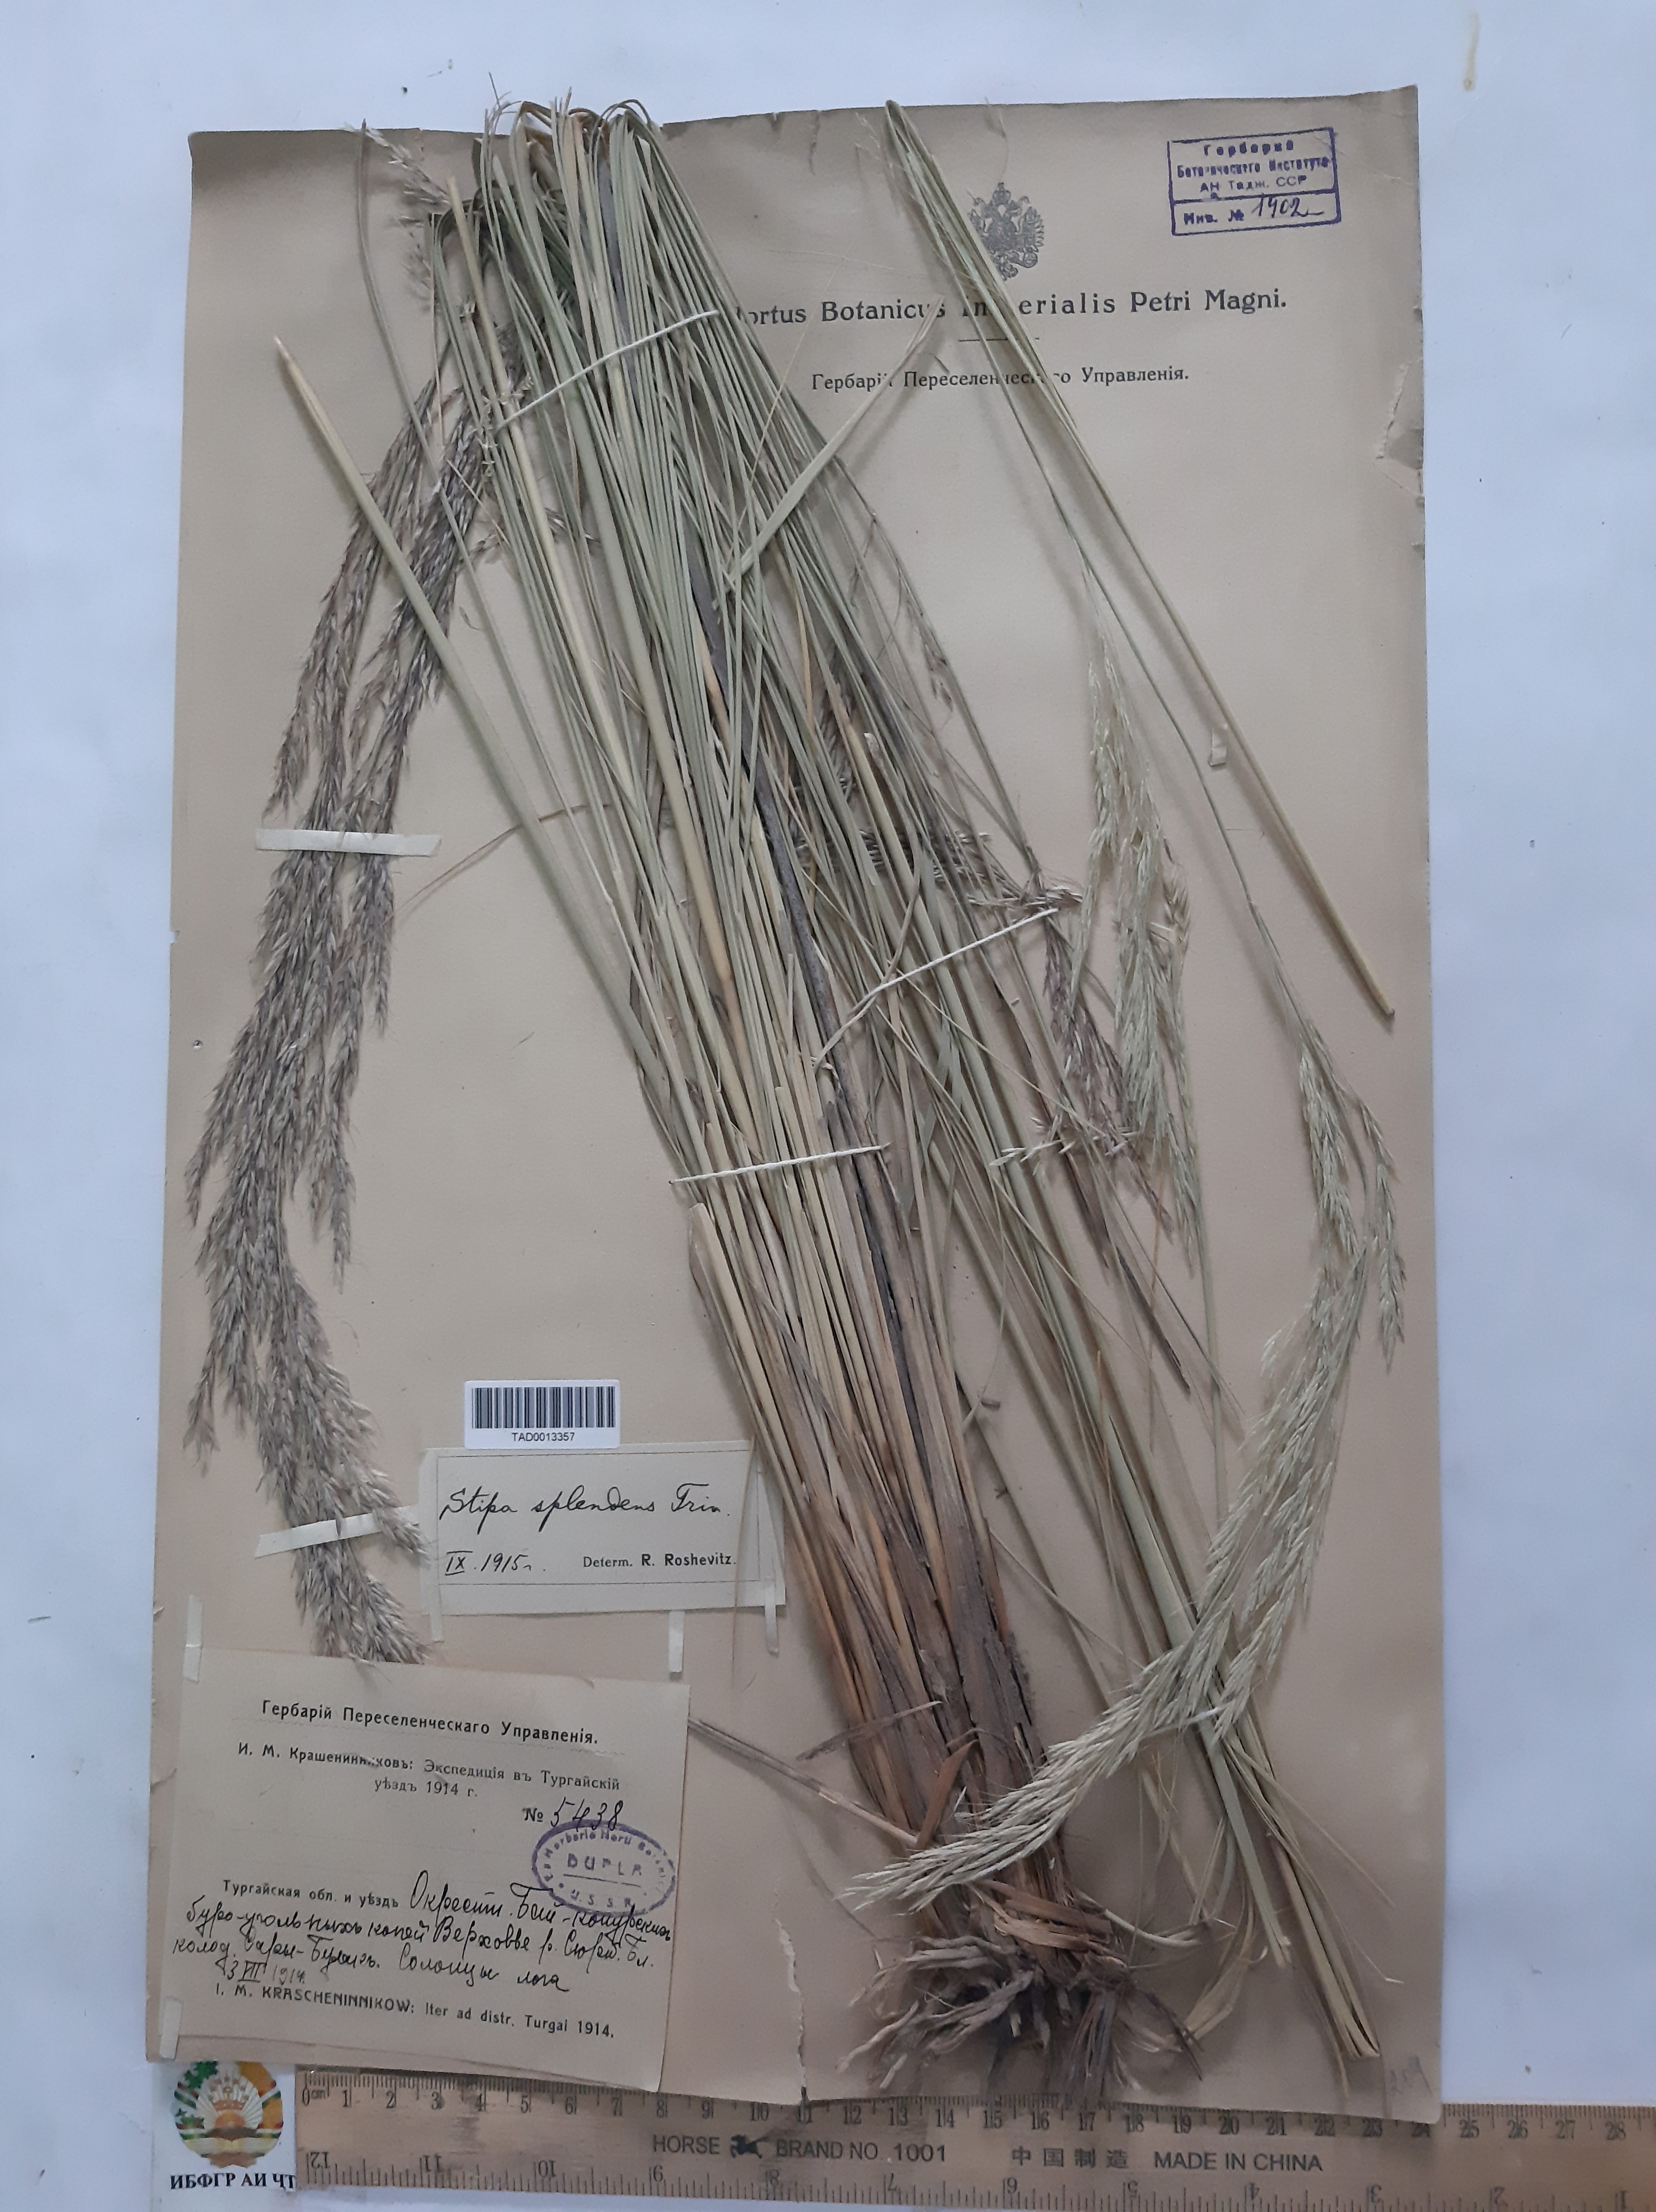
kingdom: Plantae
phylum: Tracheophyta
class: Liliopsida
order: Poales
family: Poaceae
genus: Neotrinia
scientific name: Neotrinia splendens
